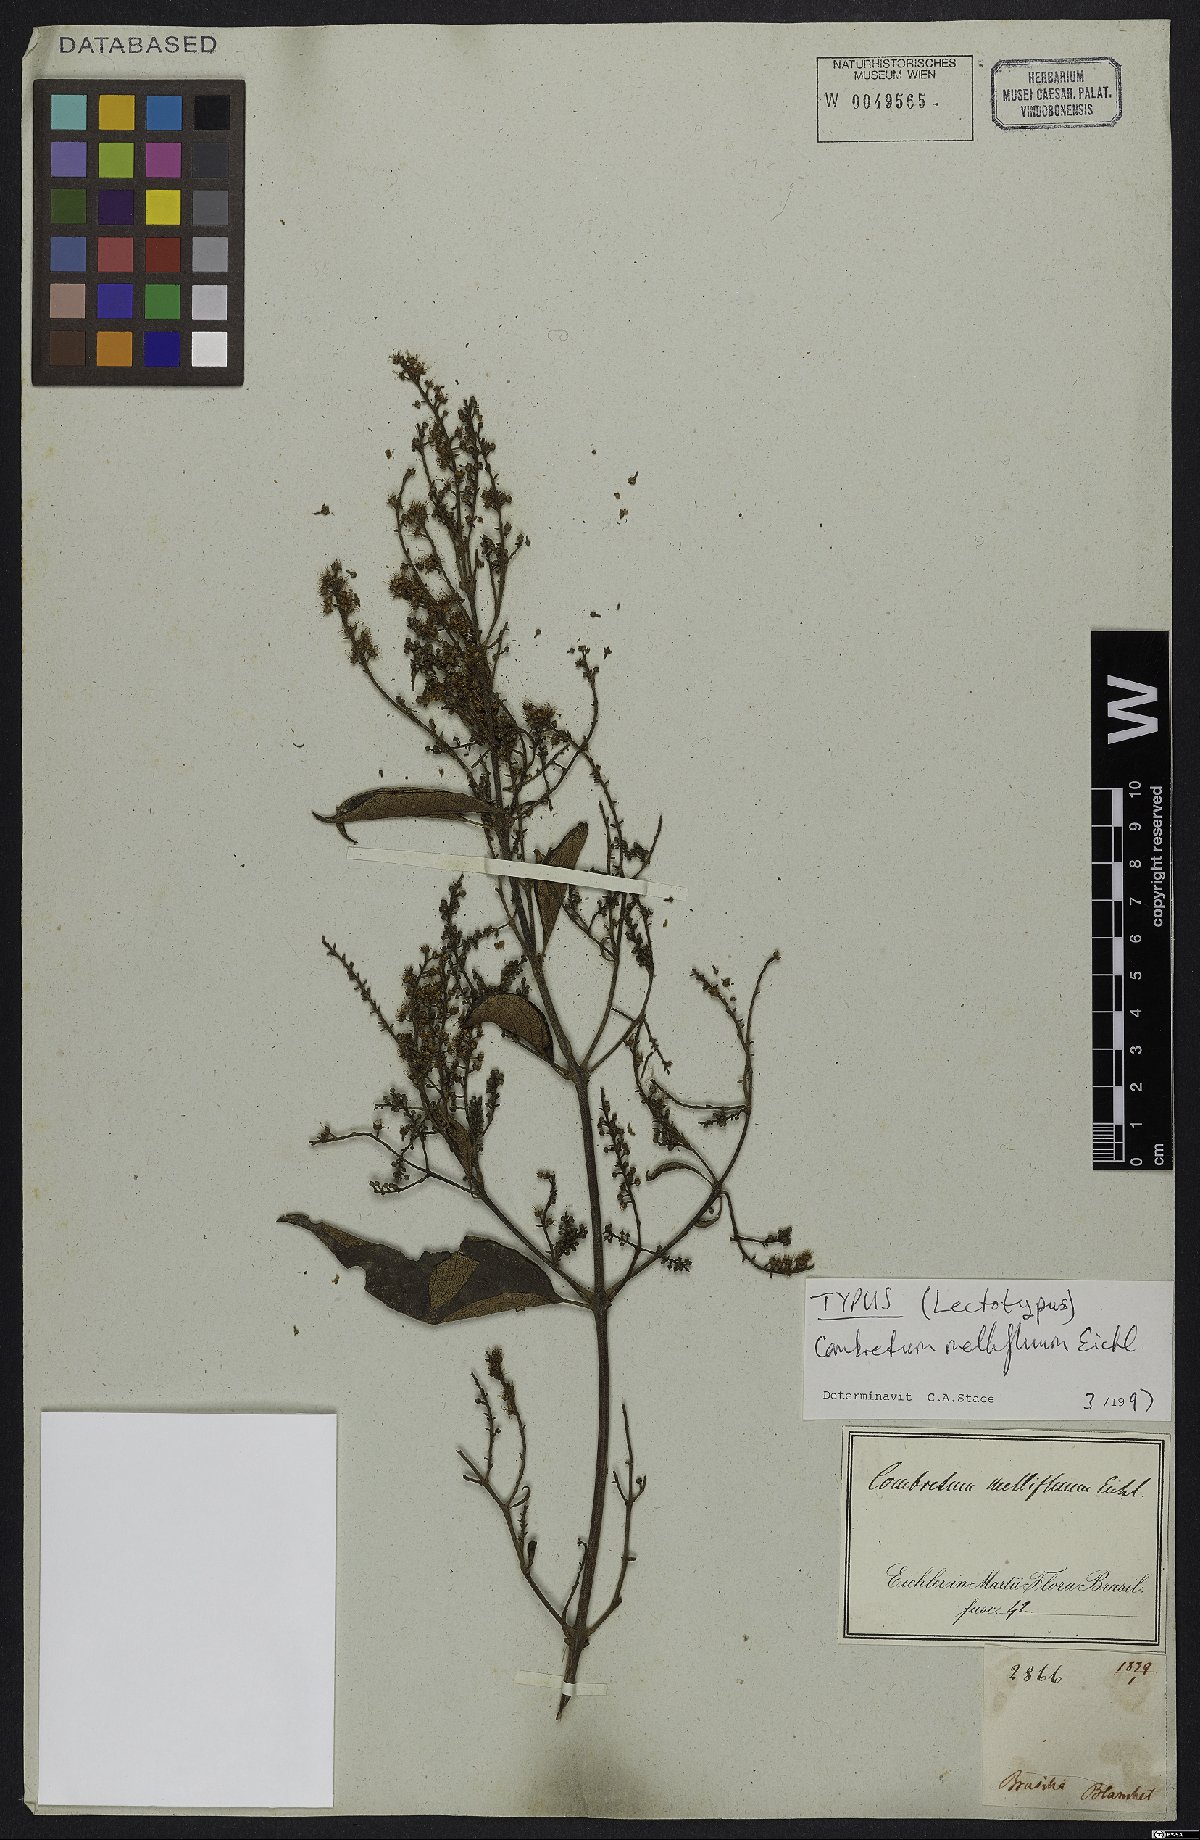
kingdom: Plantae
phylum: Tracheophyta
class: Magnoliopsida
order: Myrtales
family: Combretaceae
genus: Combretum
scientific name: Combretum mellifluum
